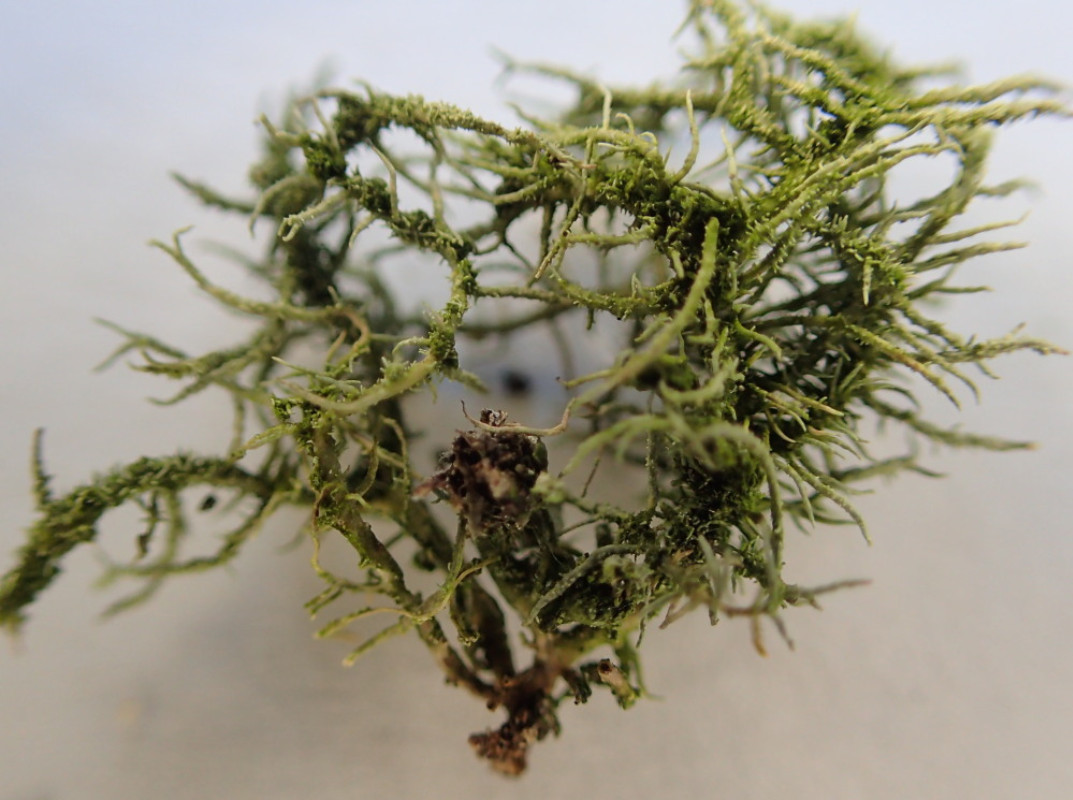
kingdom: Fungi
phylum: Ascomycota
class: Lecanoromycetes
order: Lecanorales
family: Parmeliaceae
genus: Usnea
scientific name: Usnea subfloridana
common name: busket skæglav
